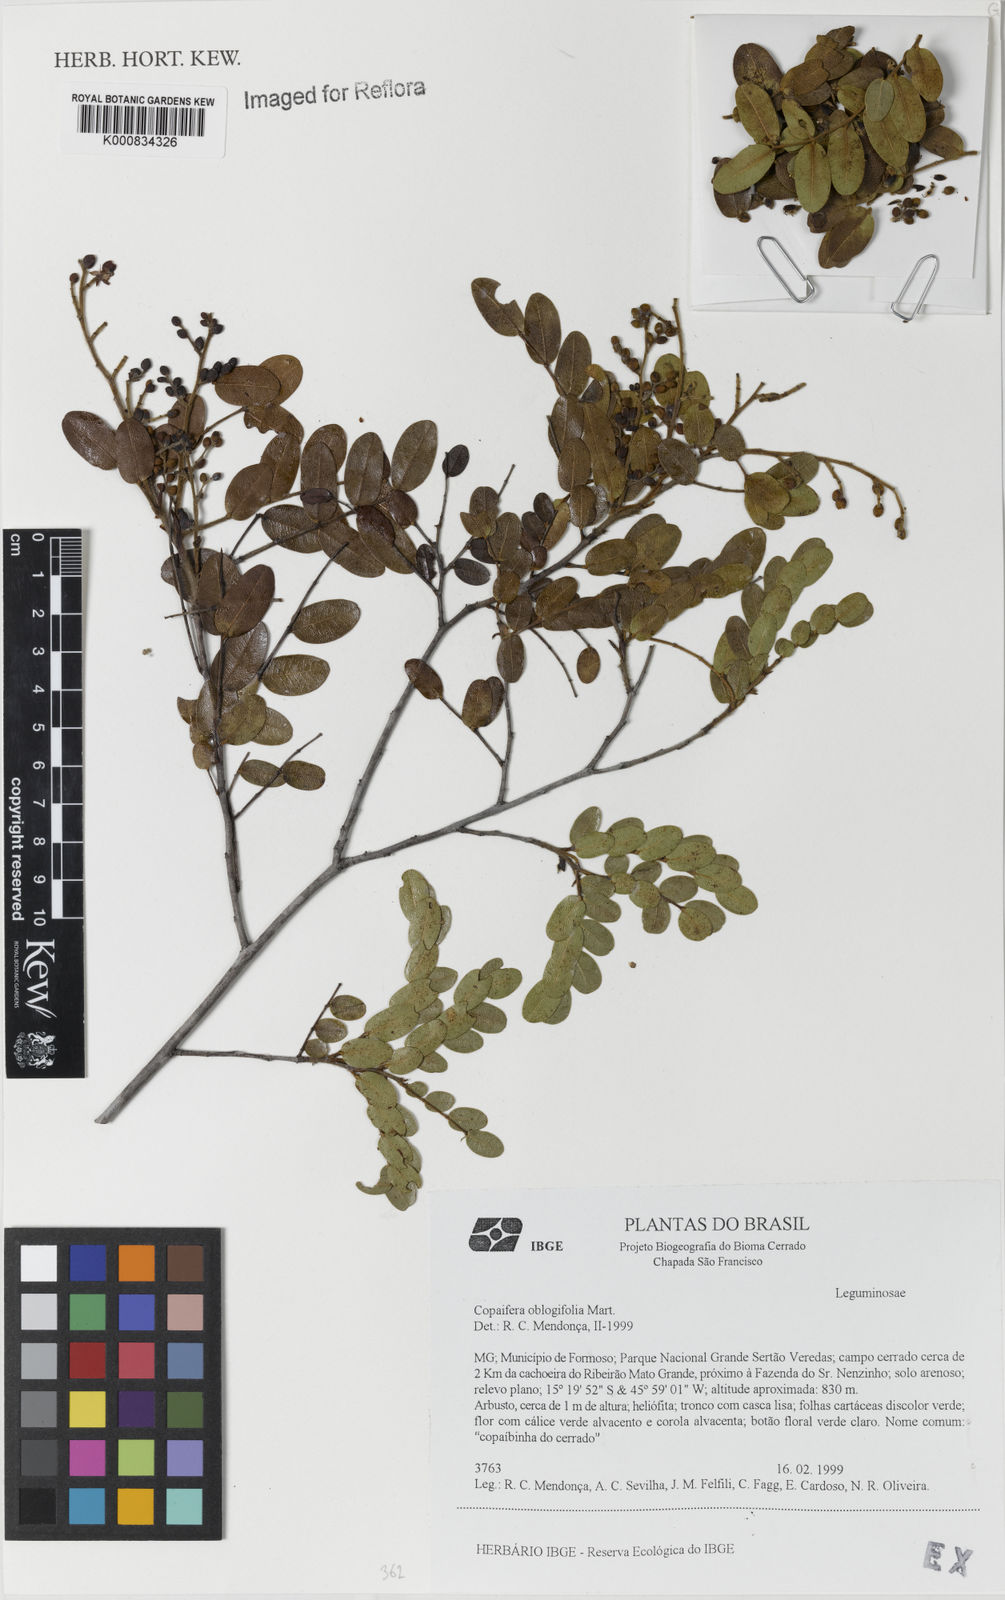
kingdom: Plantae
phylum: Tracheophyta
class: Magnoliopsida
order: Fabales
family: Fabaceae
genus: Copaifera
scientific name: Copaifera
